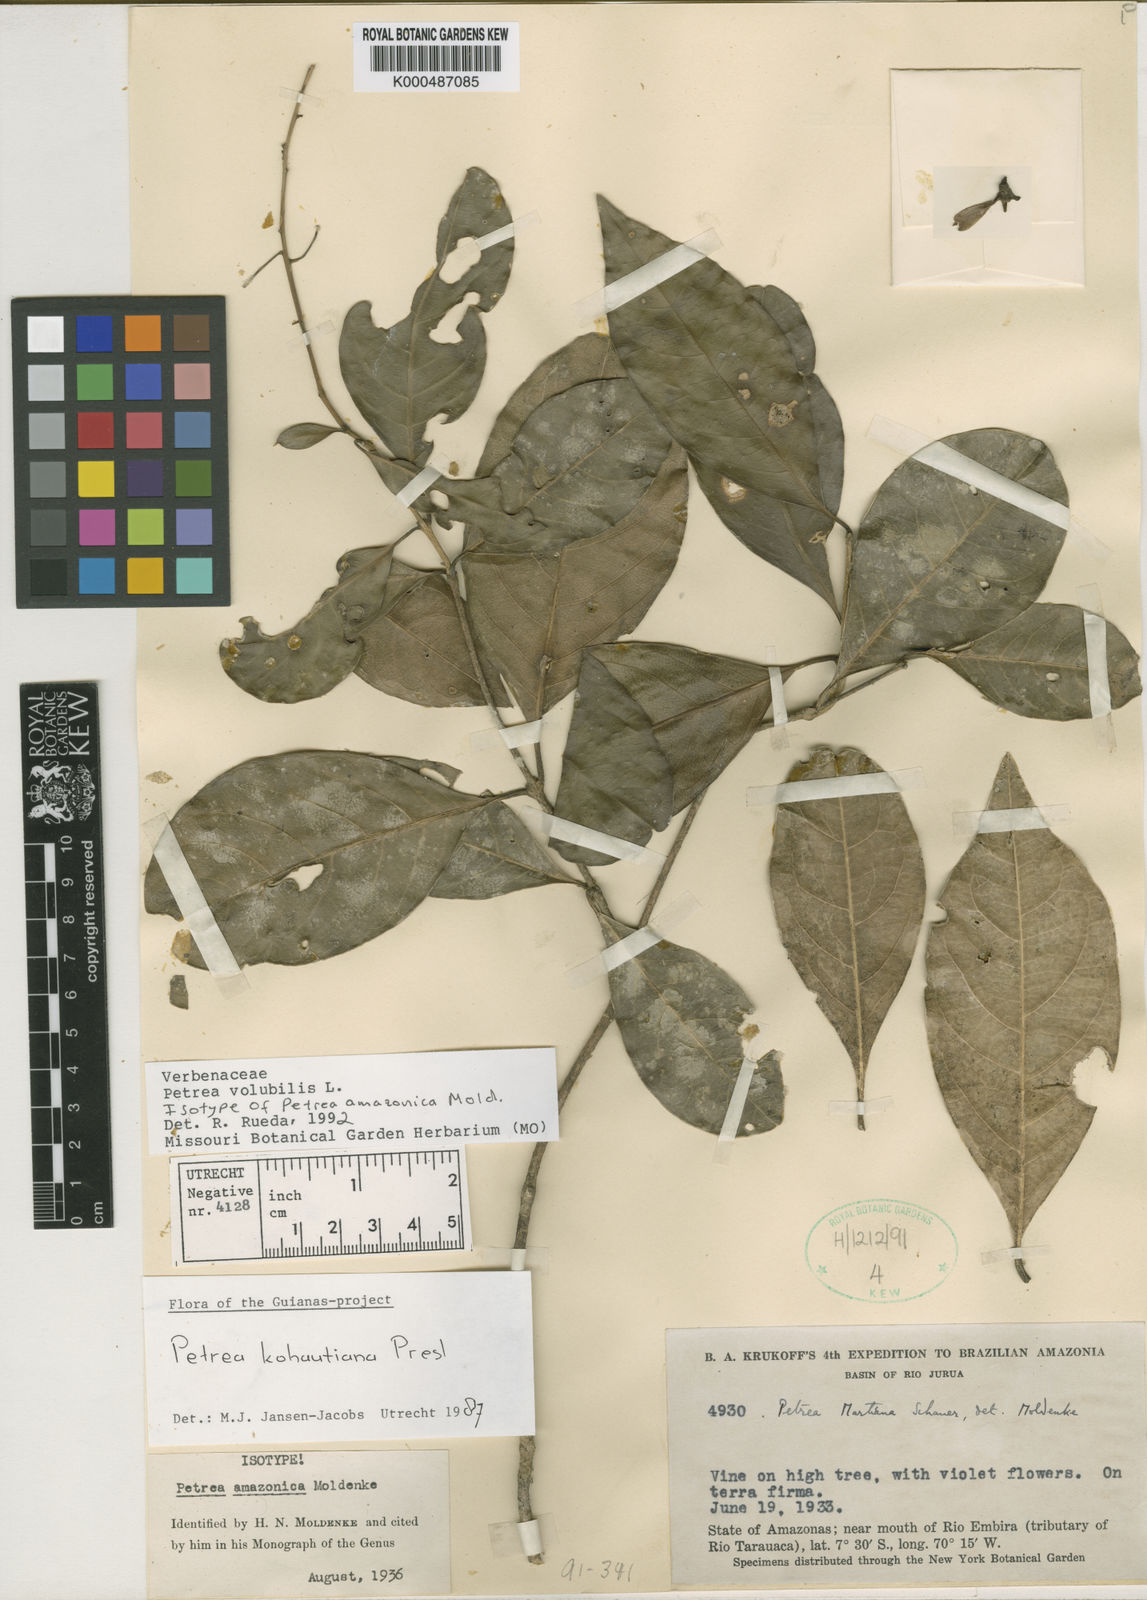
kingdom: Plantae
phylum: Tracheophyta
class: Magnoliopsida
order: Lamiales
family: Verbenaceae
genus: Petrea
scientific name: Petrea volubilis
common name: Queen's-wreath
